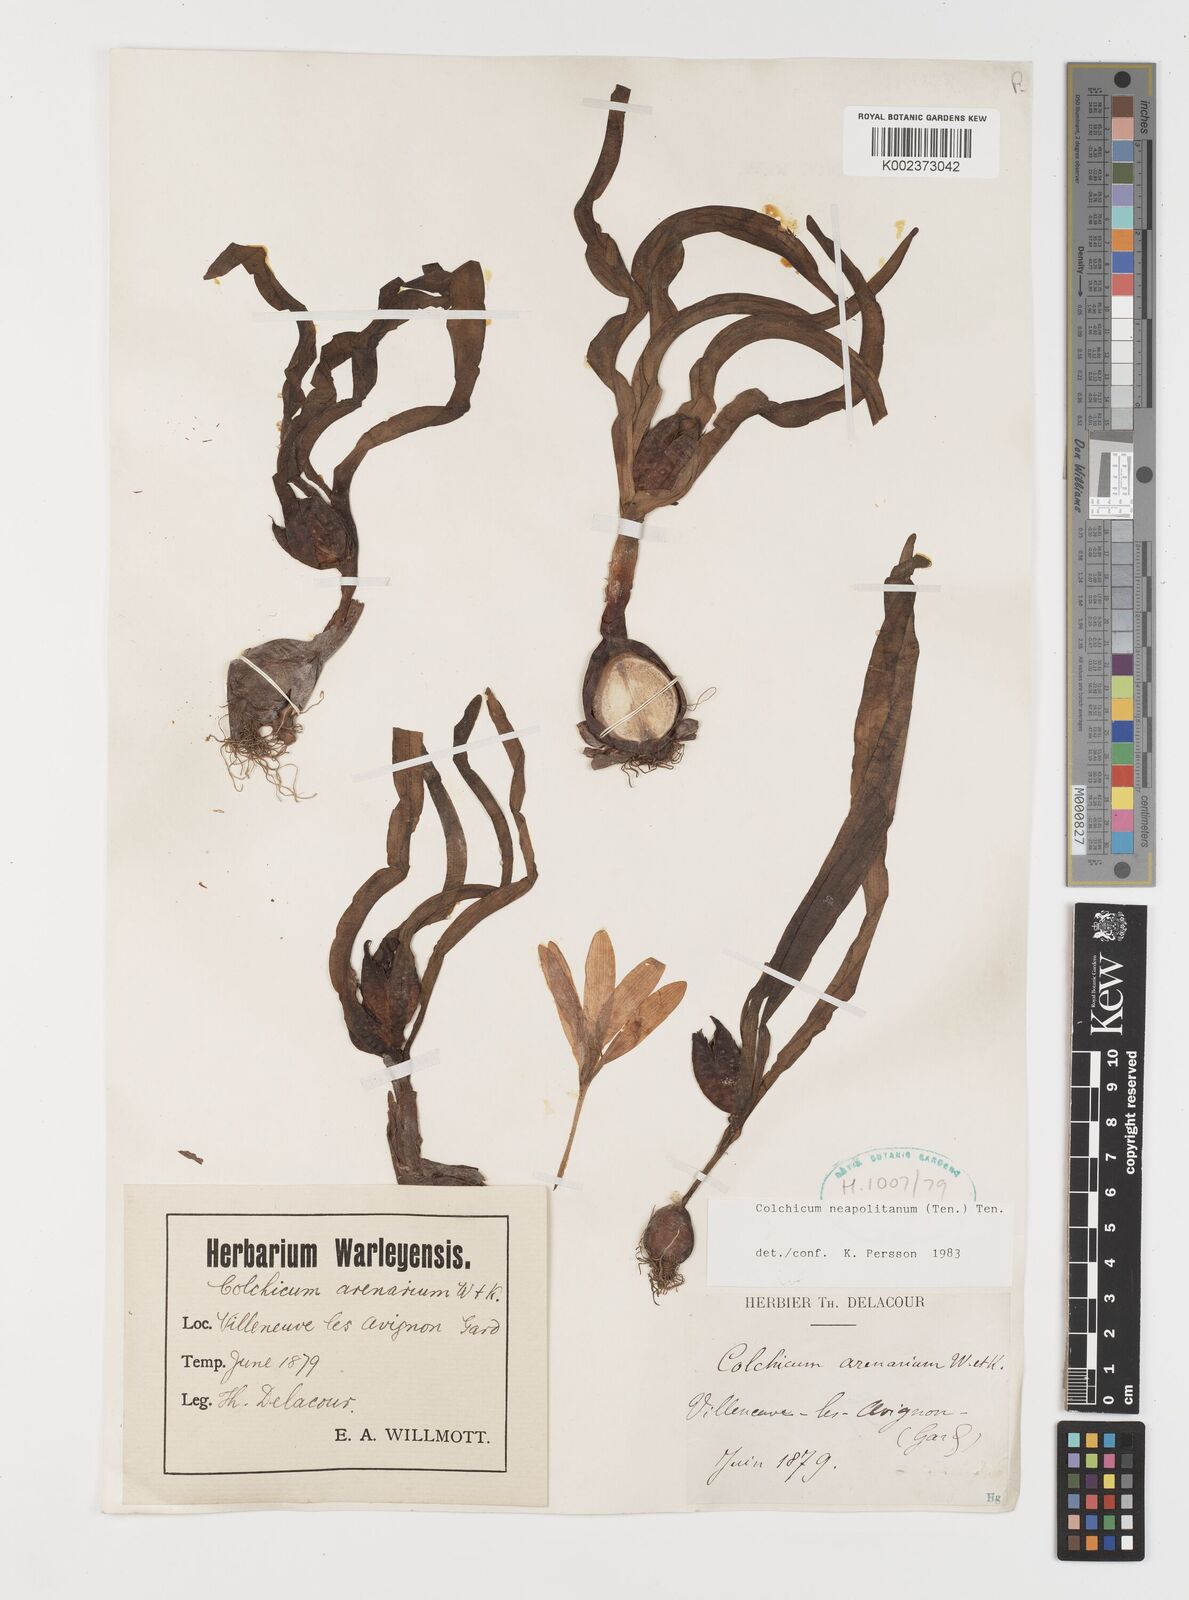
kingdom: Plantae
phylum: Tracheophyta
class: Liliopsida
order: Liliales
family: Colchicaceae
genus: Colchicum
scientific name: Colchicum neapolitanum
